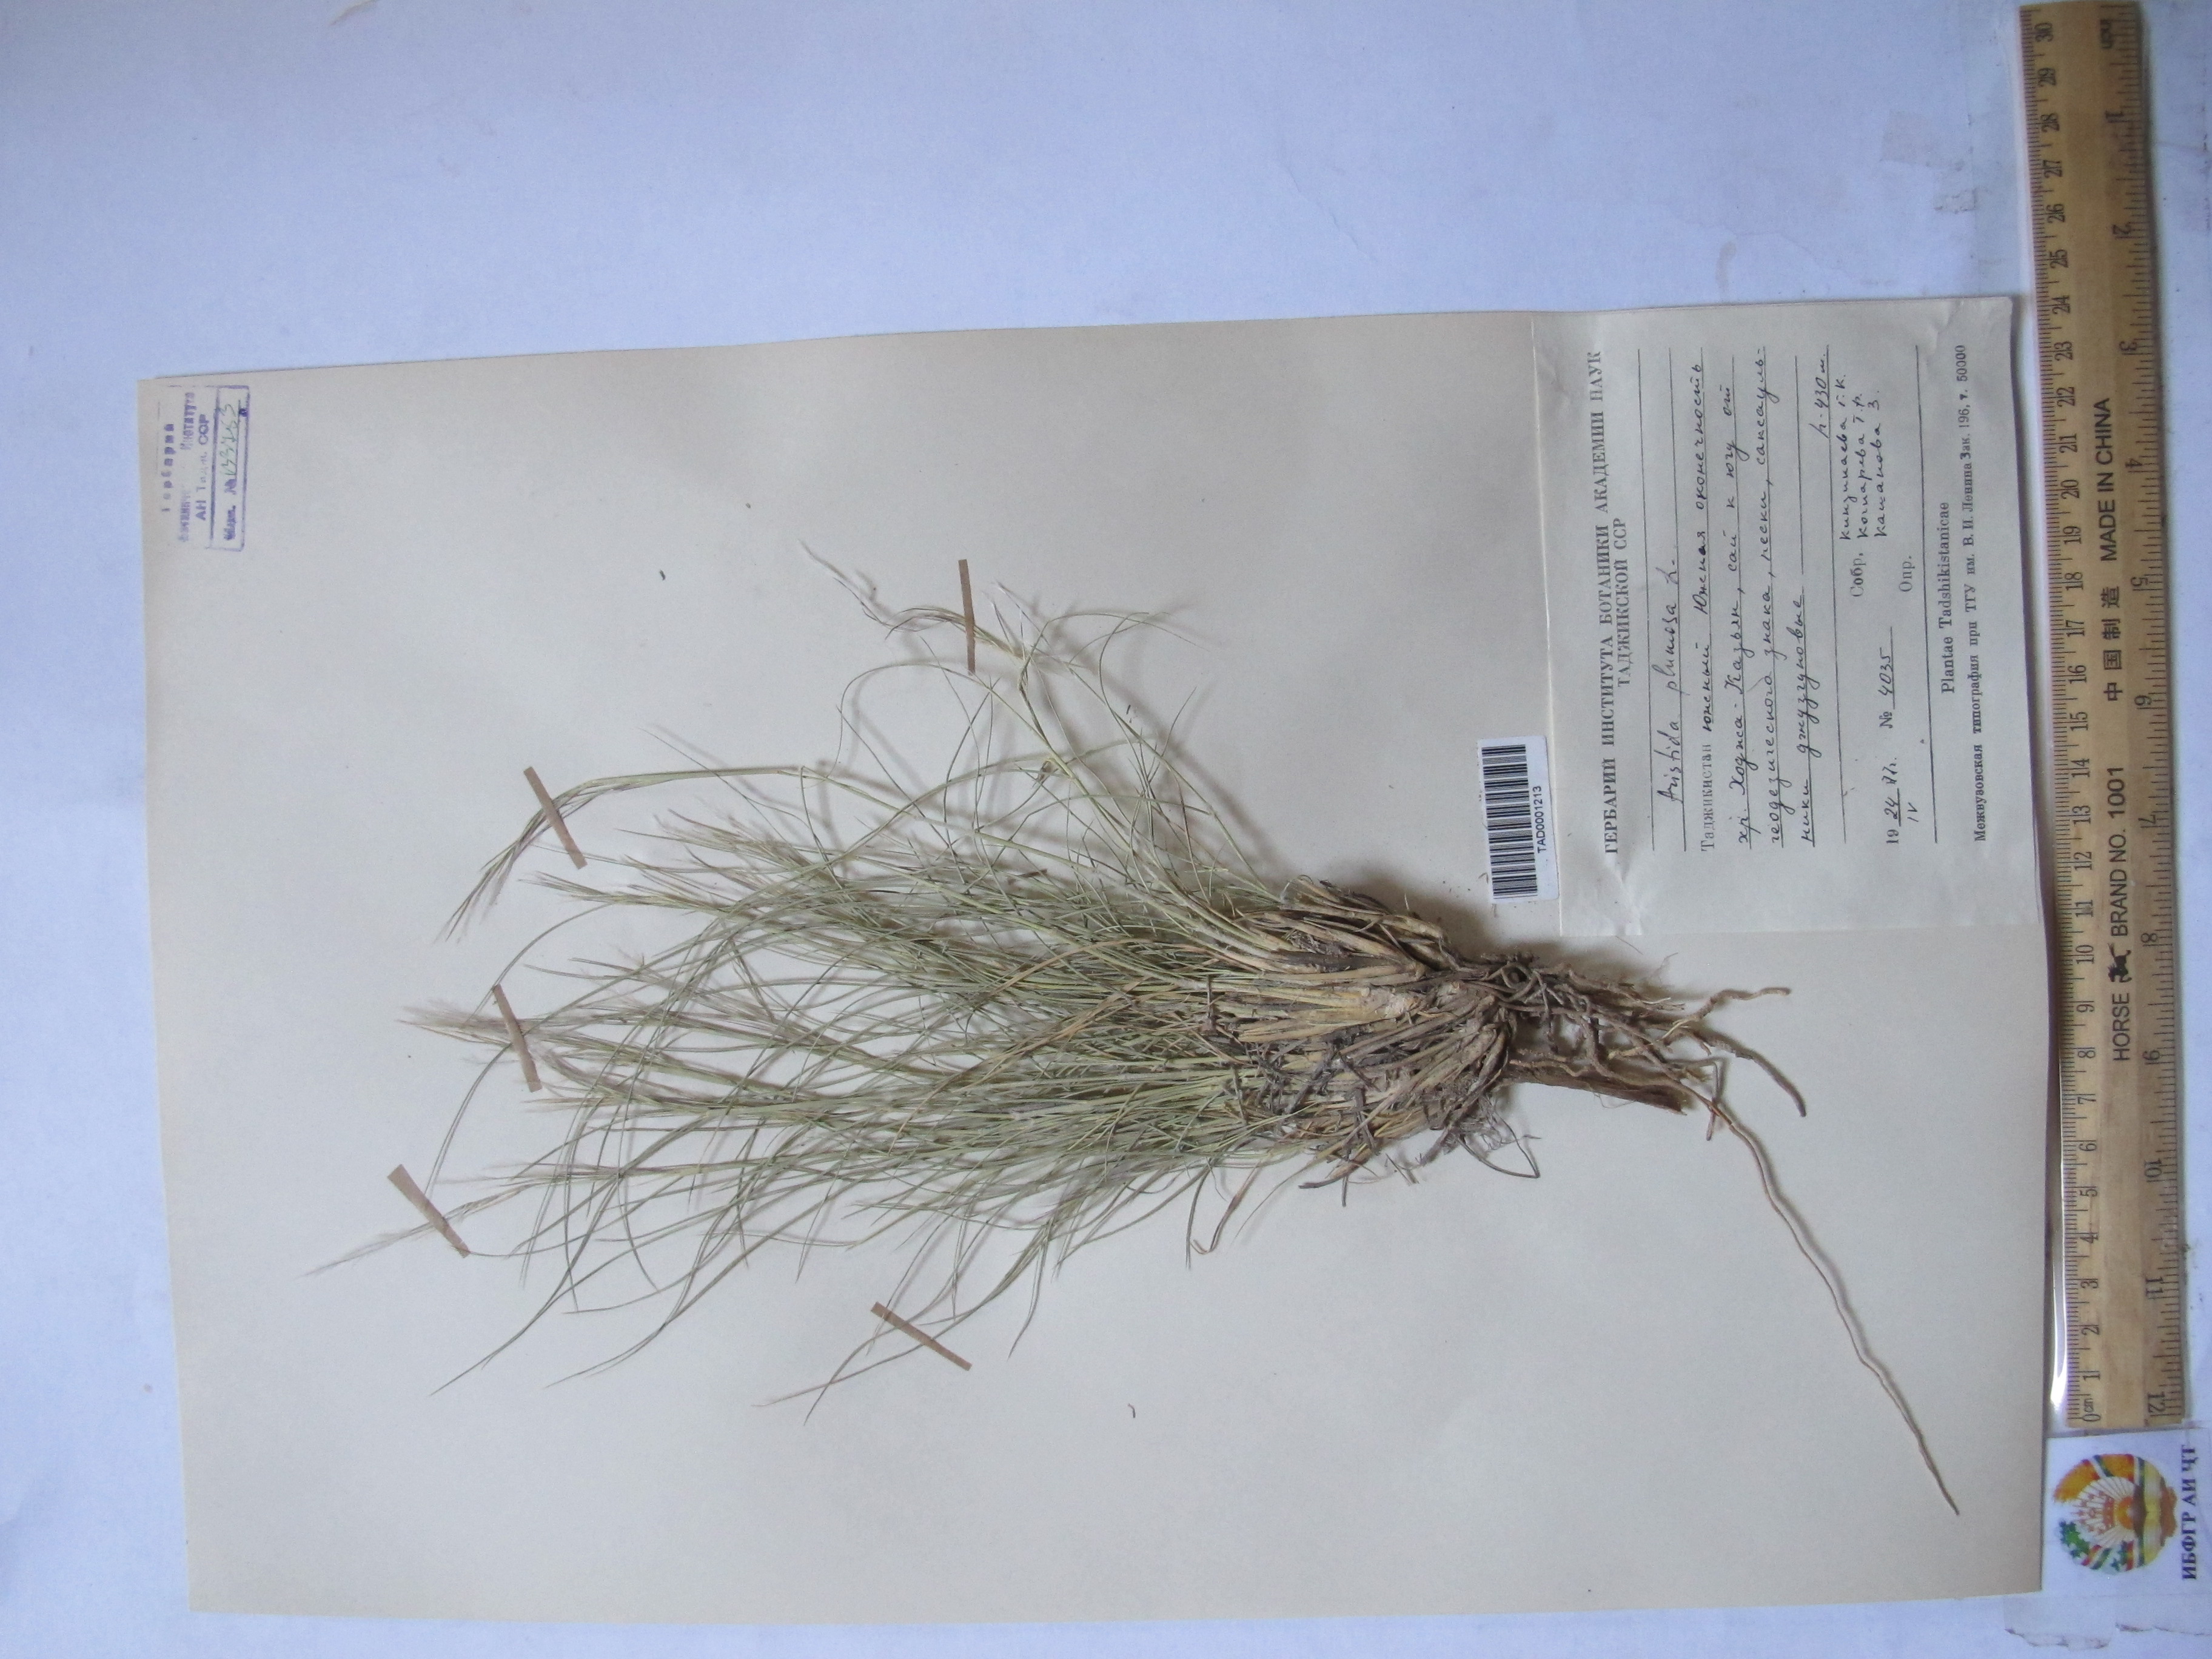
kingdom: Plantae
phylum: Tracheophyta
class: Liliopsida
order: Poales
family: Poaceae
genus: Stipagrostis
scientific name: Stipagrostis plumosa
